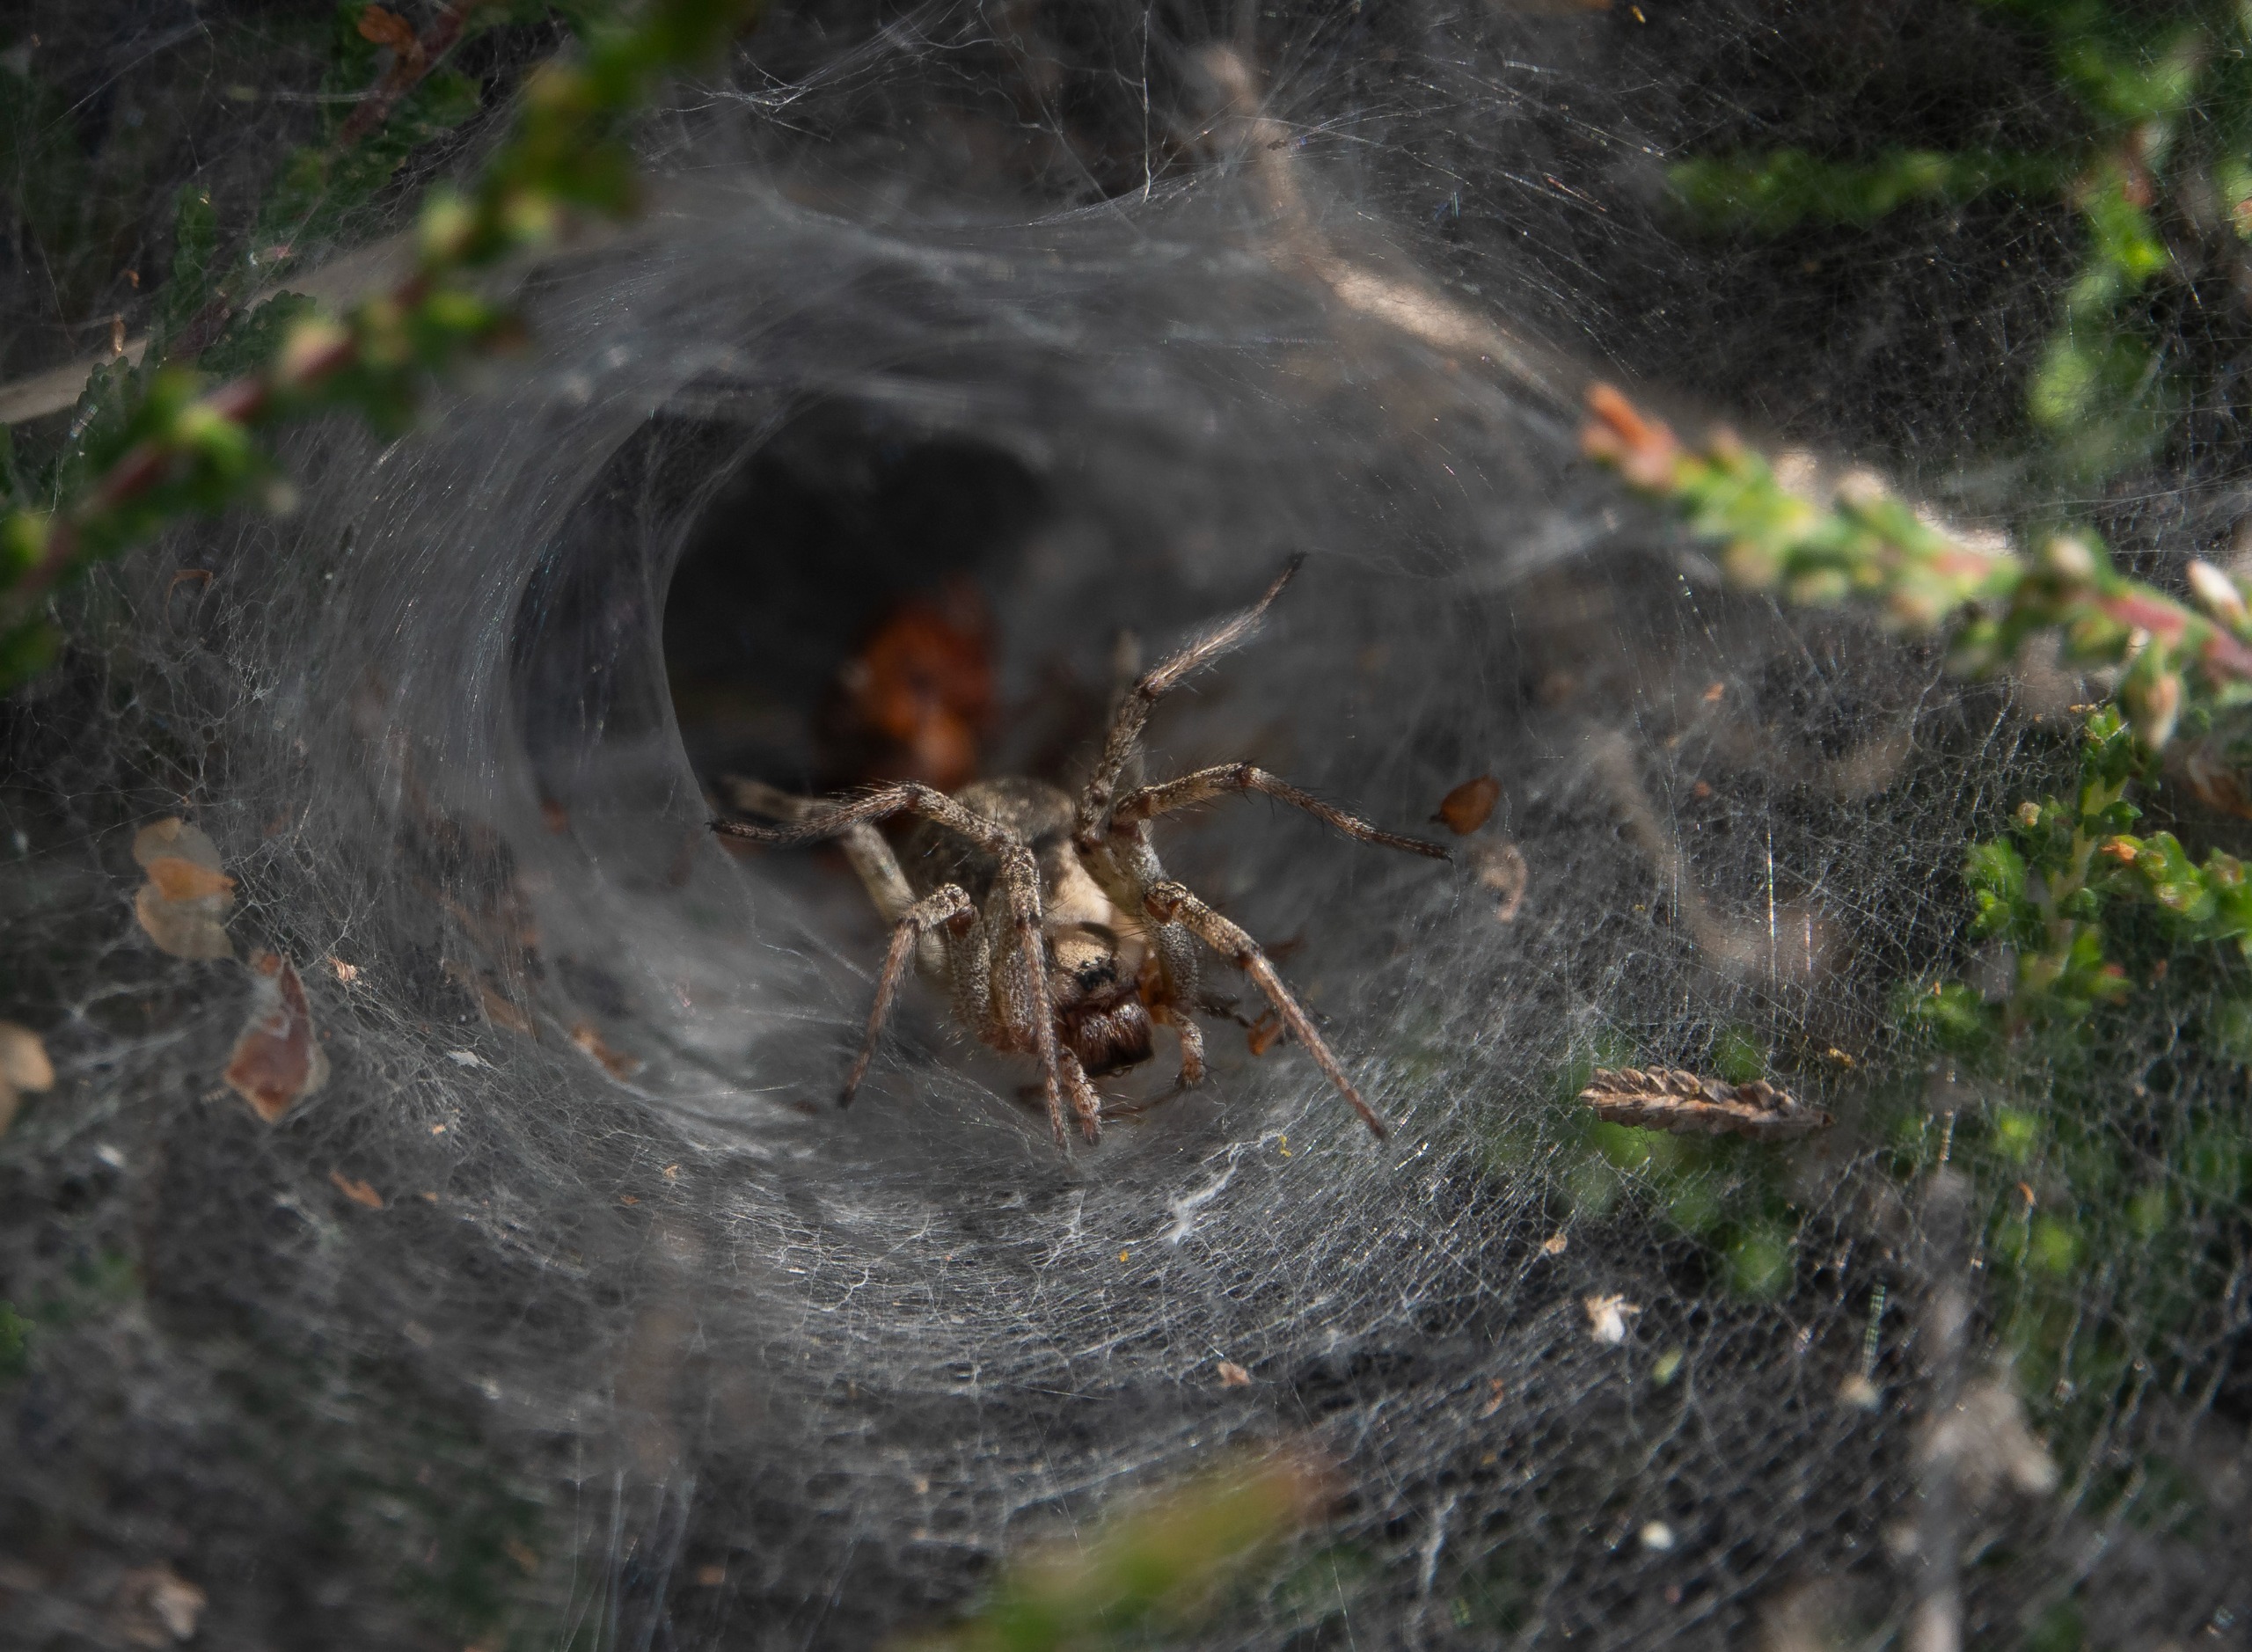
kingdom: Animalia
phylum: Arthropoda
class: Arachnida
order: Araneae
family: Agelenidae
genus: Agelena
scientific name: Agelena labyrinthica
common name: Labyrintedderkop
